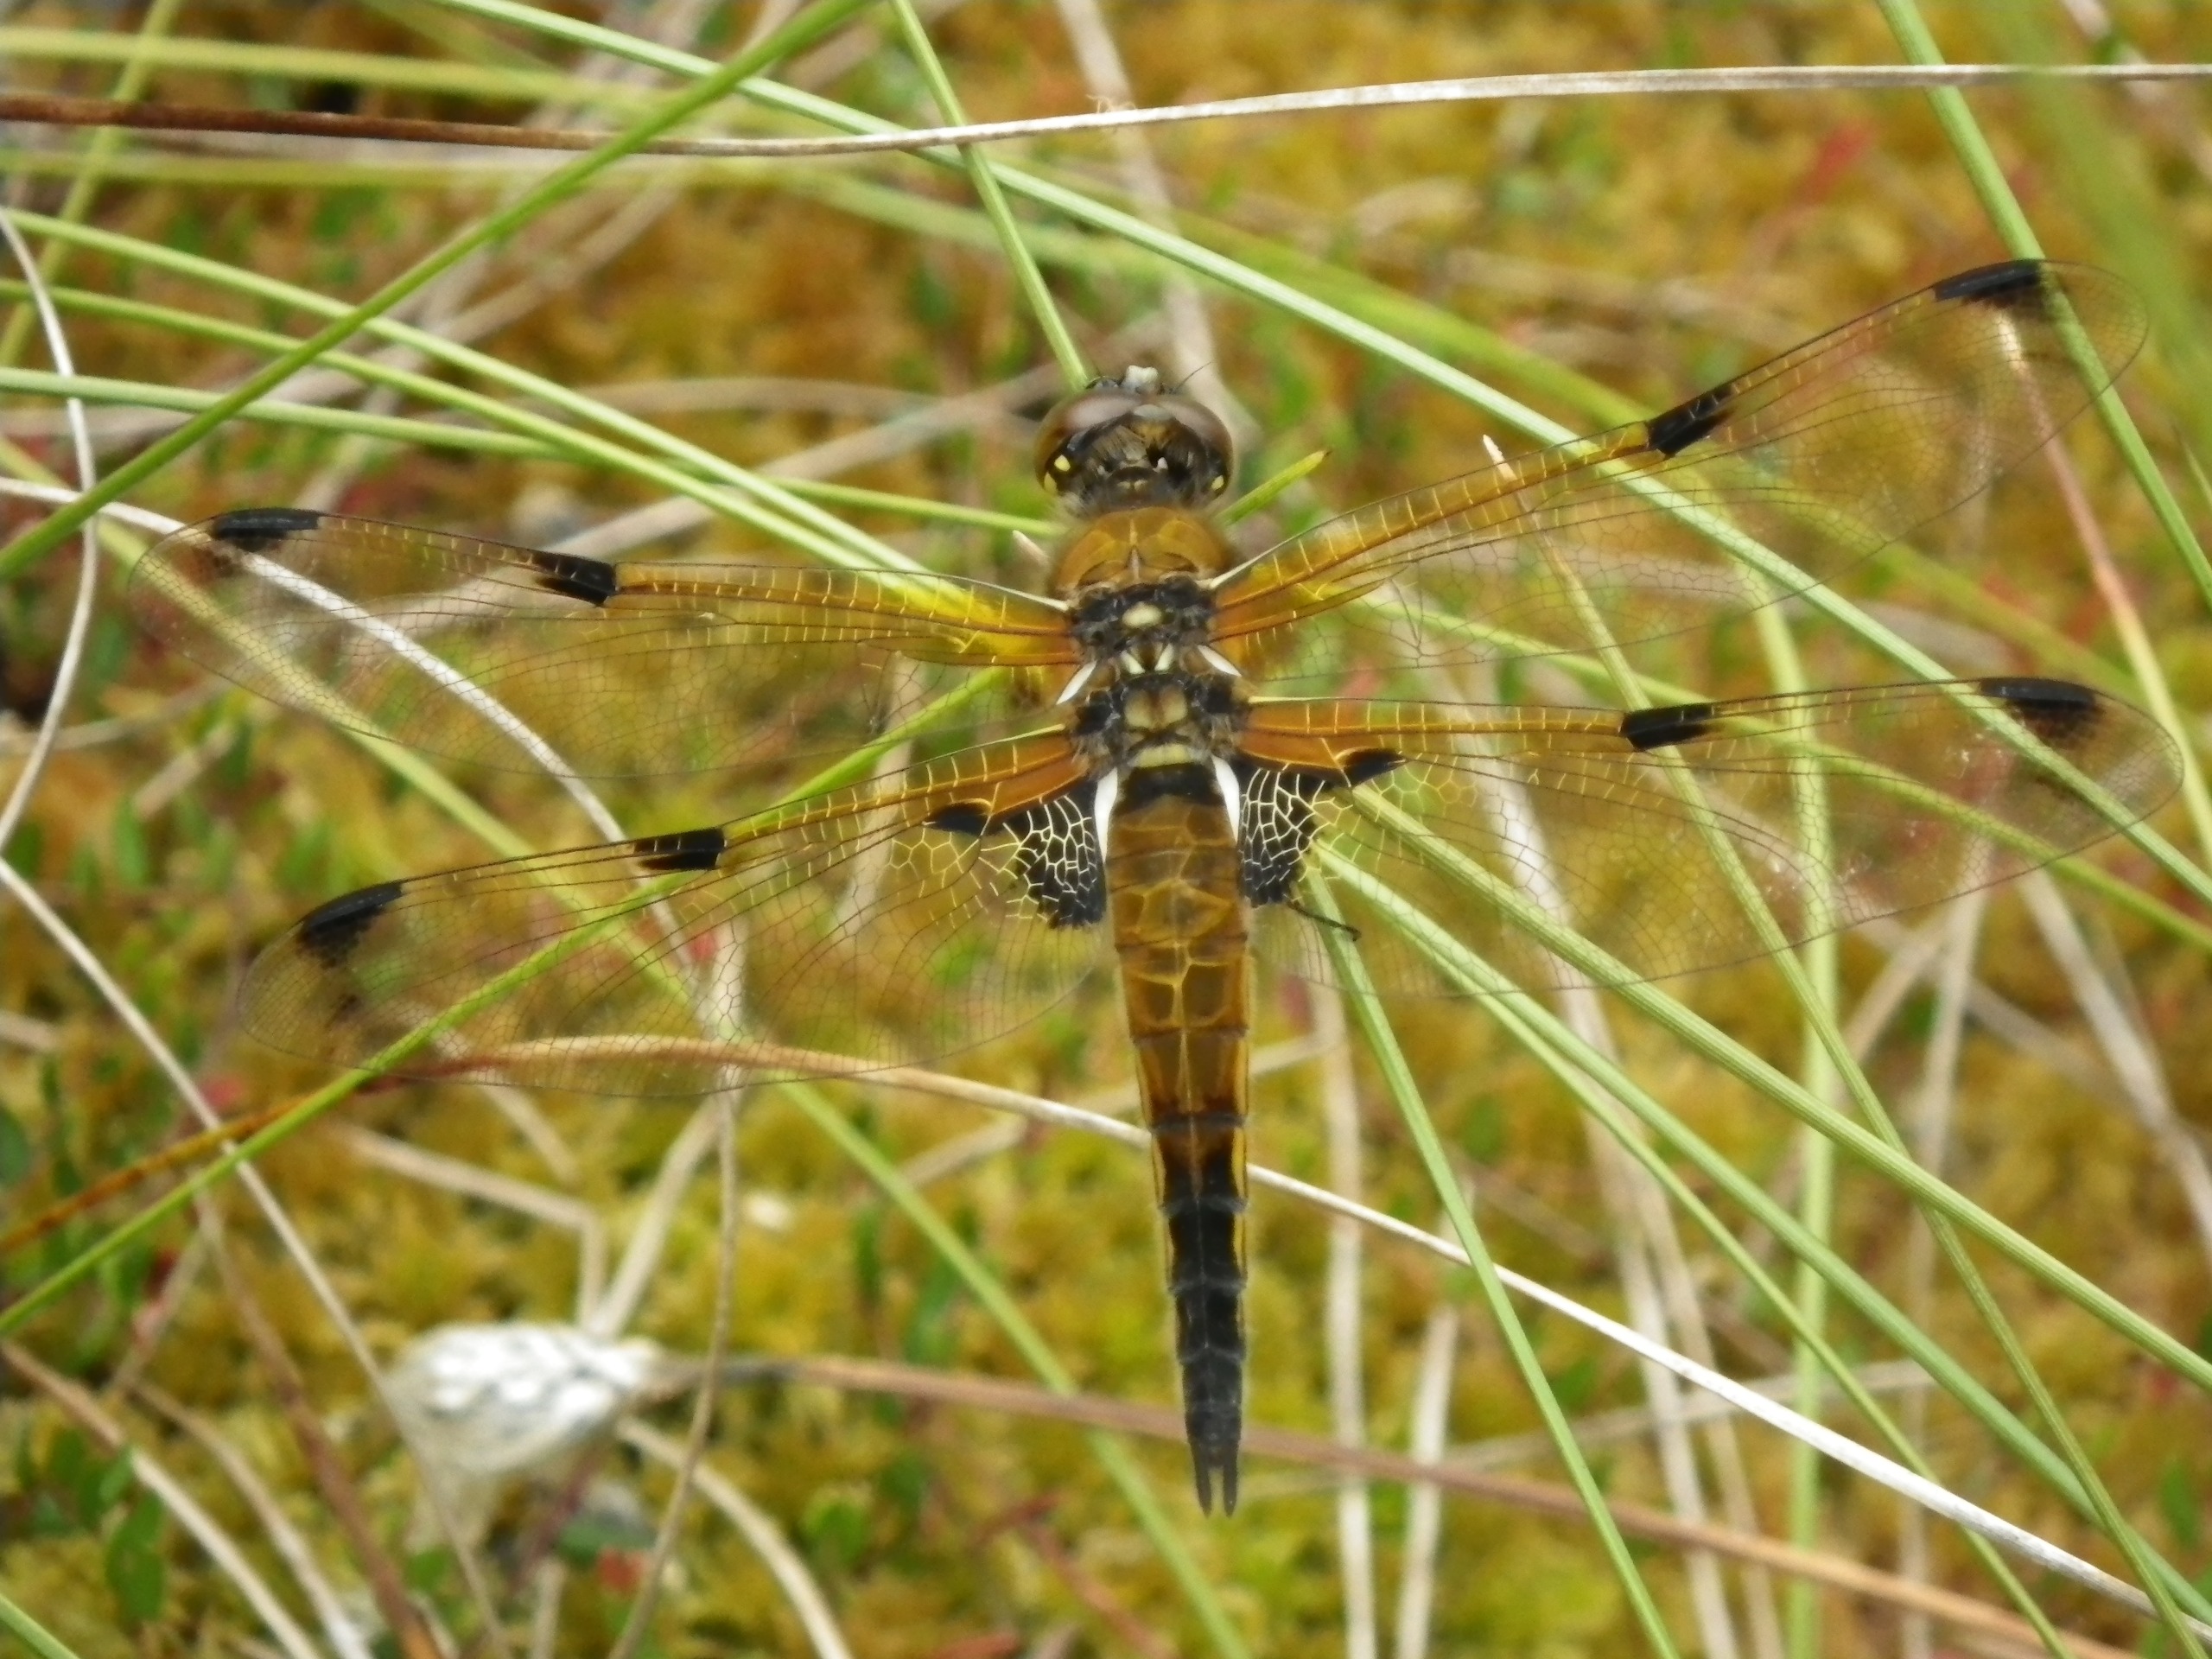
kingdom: Animalia
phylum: Arthropoda
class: Insecta
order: Odonata
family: Libellulidae
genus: Libellula
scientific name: Libellula quadrimaculata
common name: Fireplettet libel
